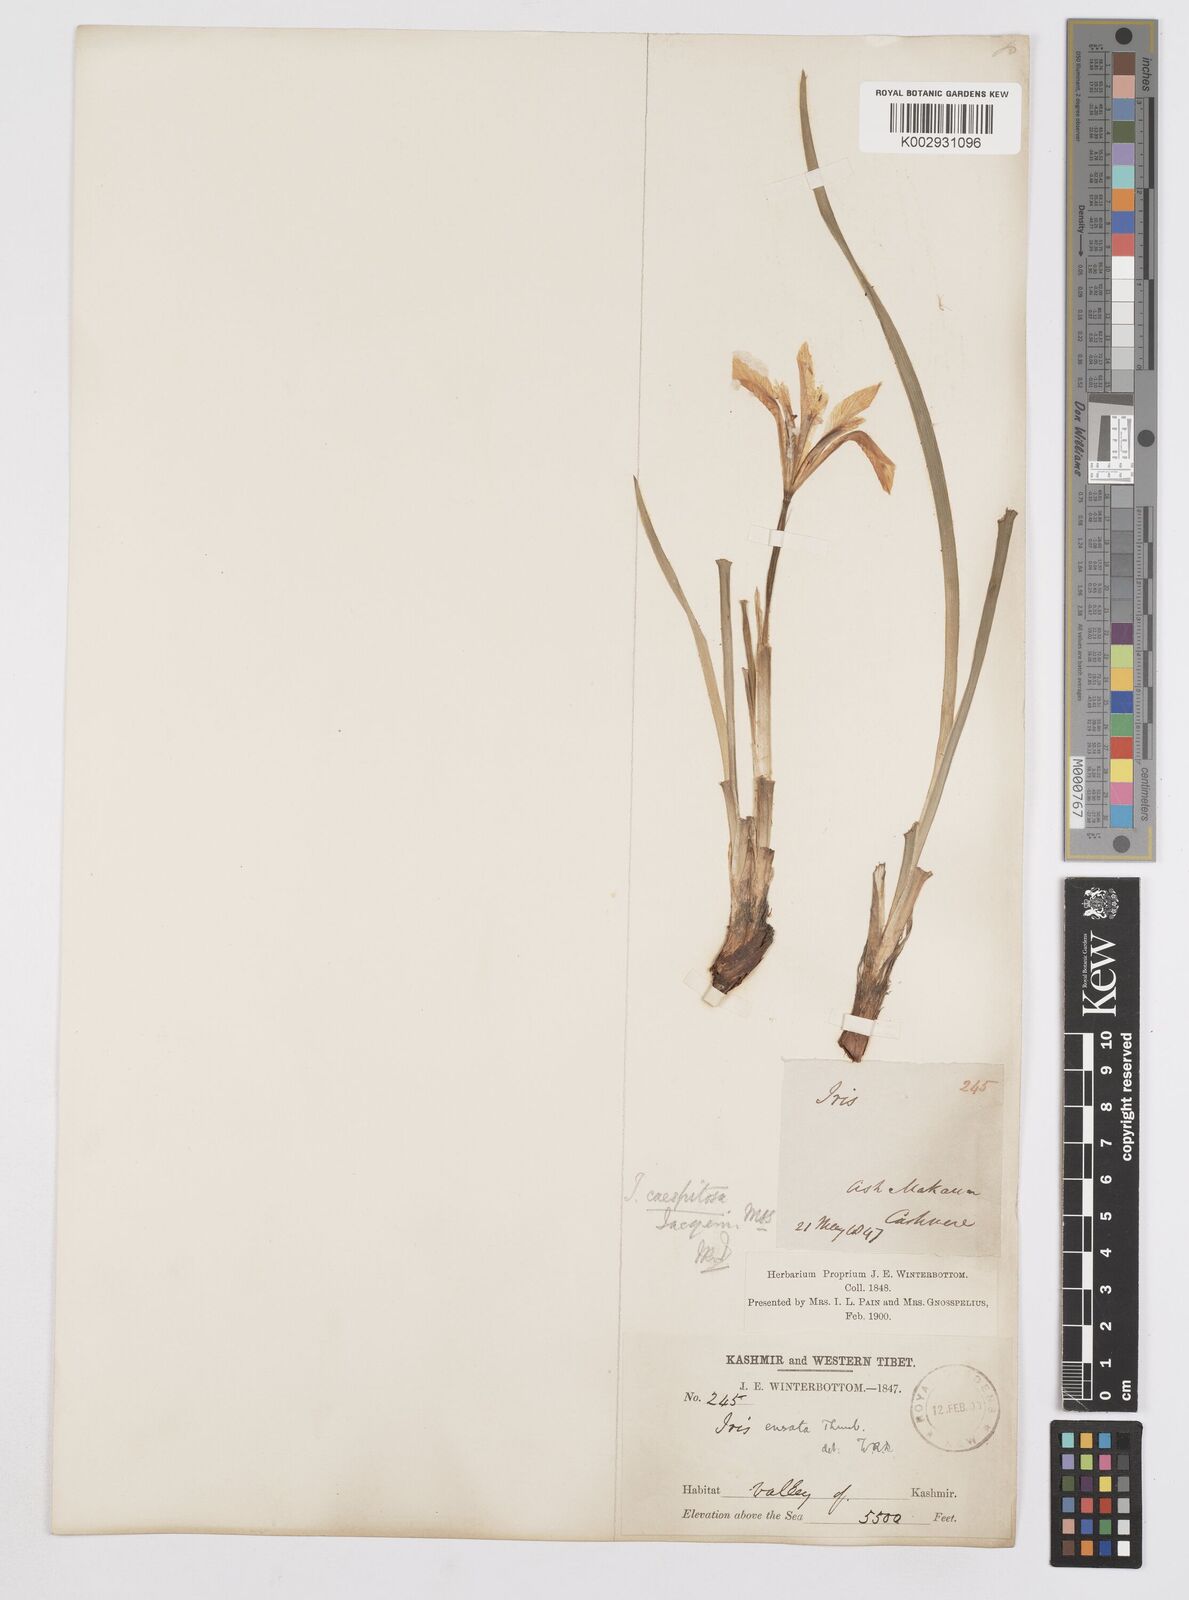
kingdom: Plantae
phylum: Tracheophyta
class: Liliopsida
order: Asparagales
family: Iridaceae
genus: Iris
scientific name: Iris ensata
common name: Beaked iris
